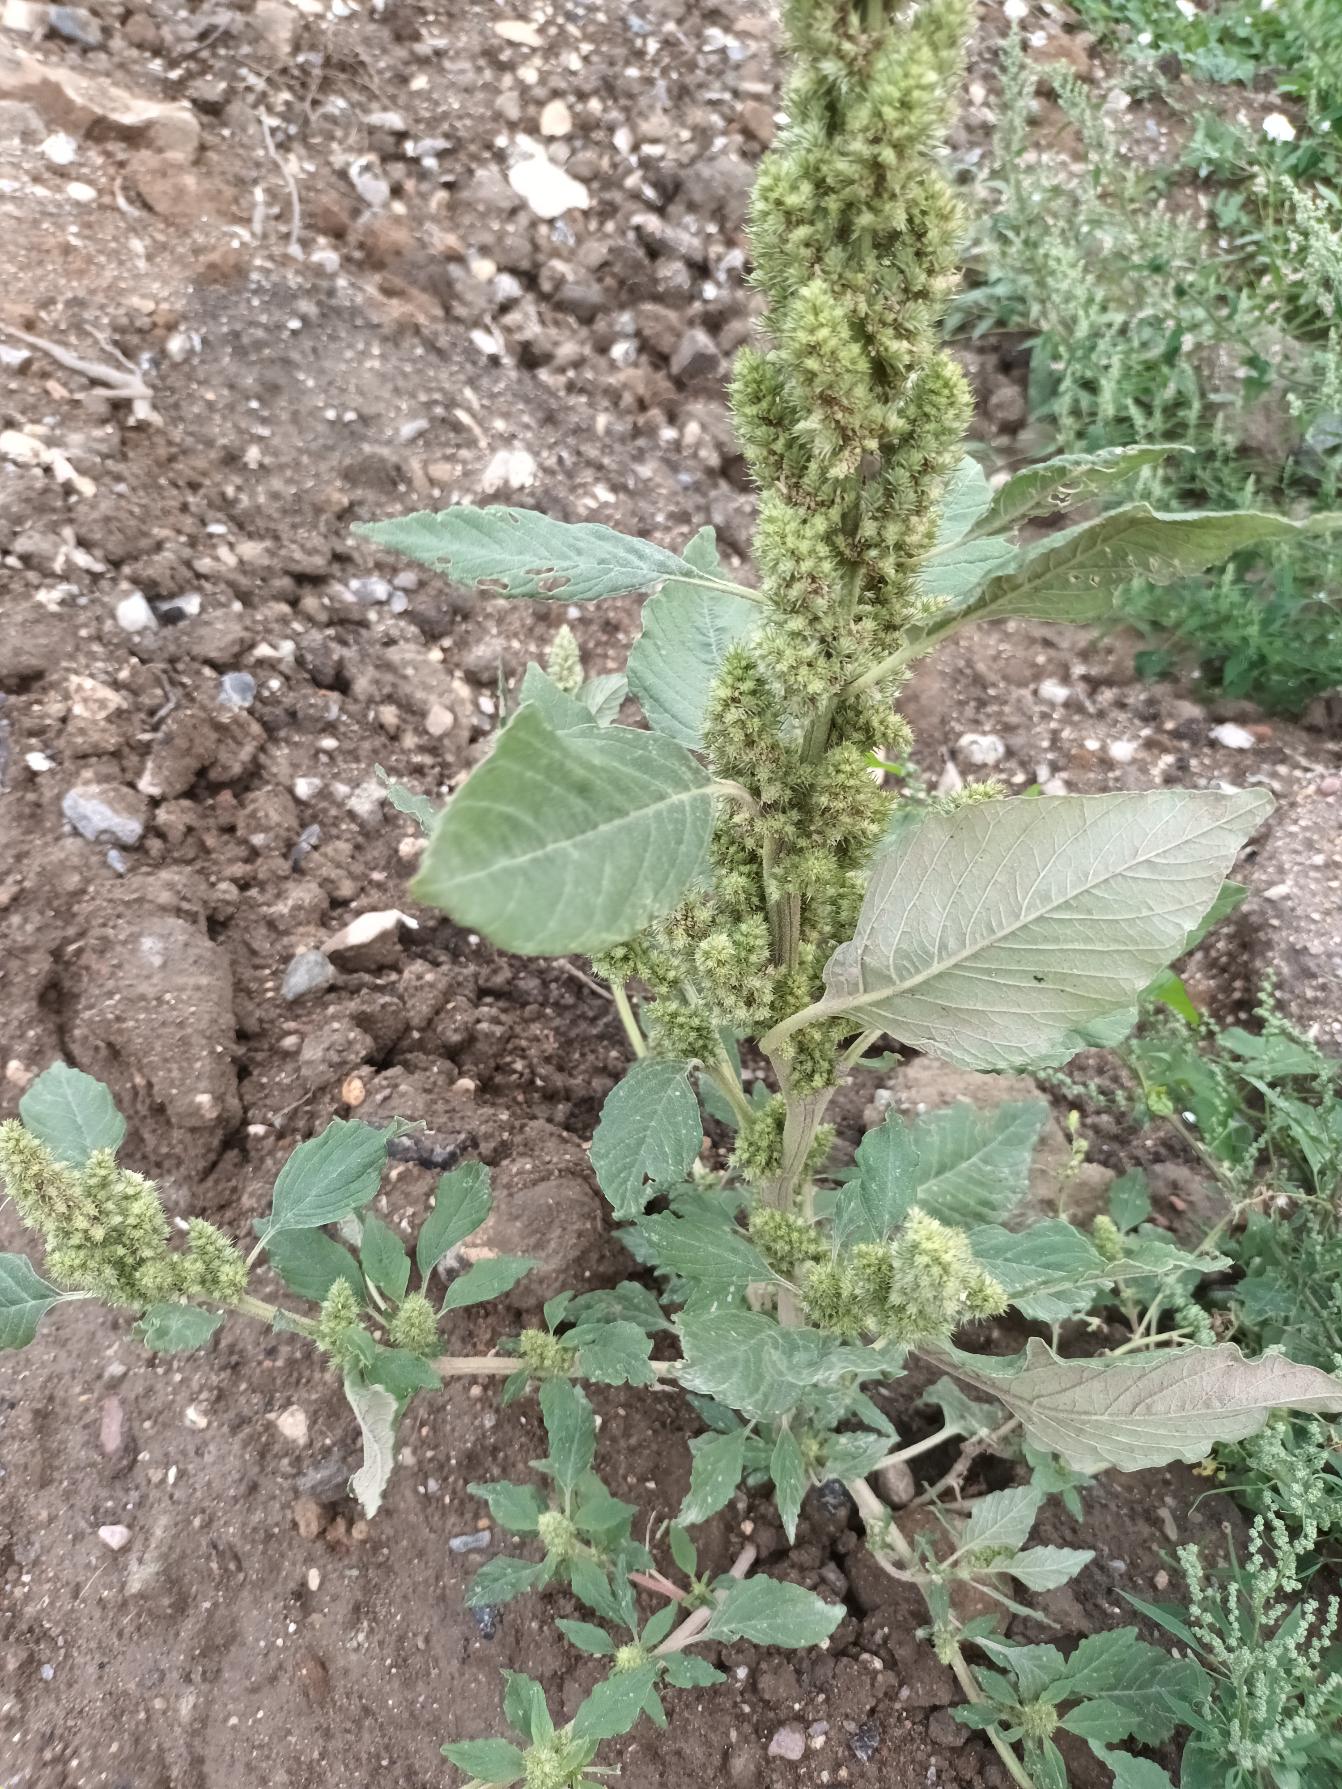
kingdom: Plantae
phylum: Tracheophyta
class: Magnoliopsida
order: Caryophyllales
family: Amaranthaceae
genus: Amaranthus
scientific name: Amaranthus retroflexus
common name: Opret amarant
